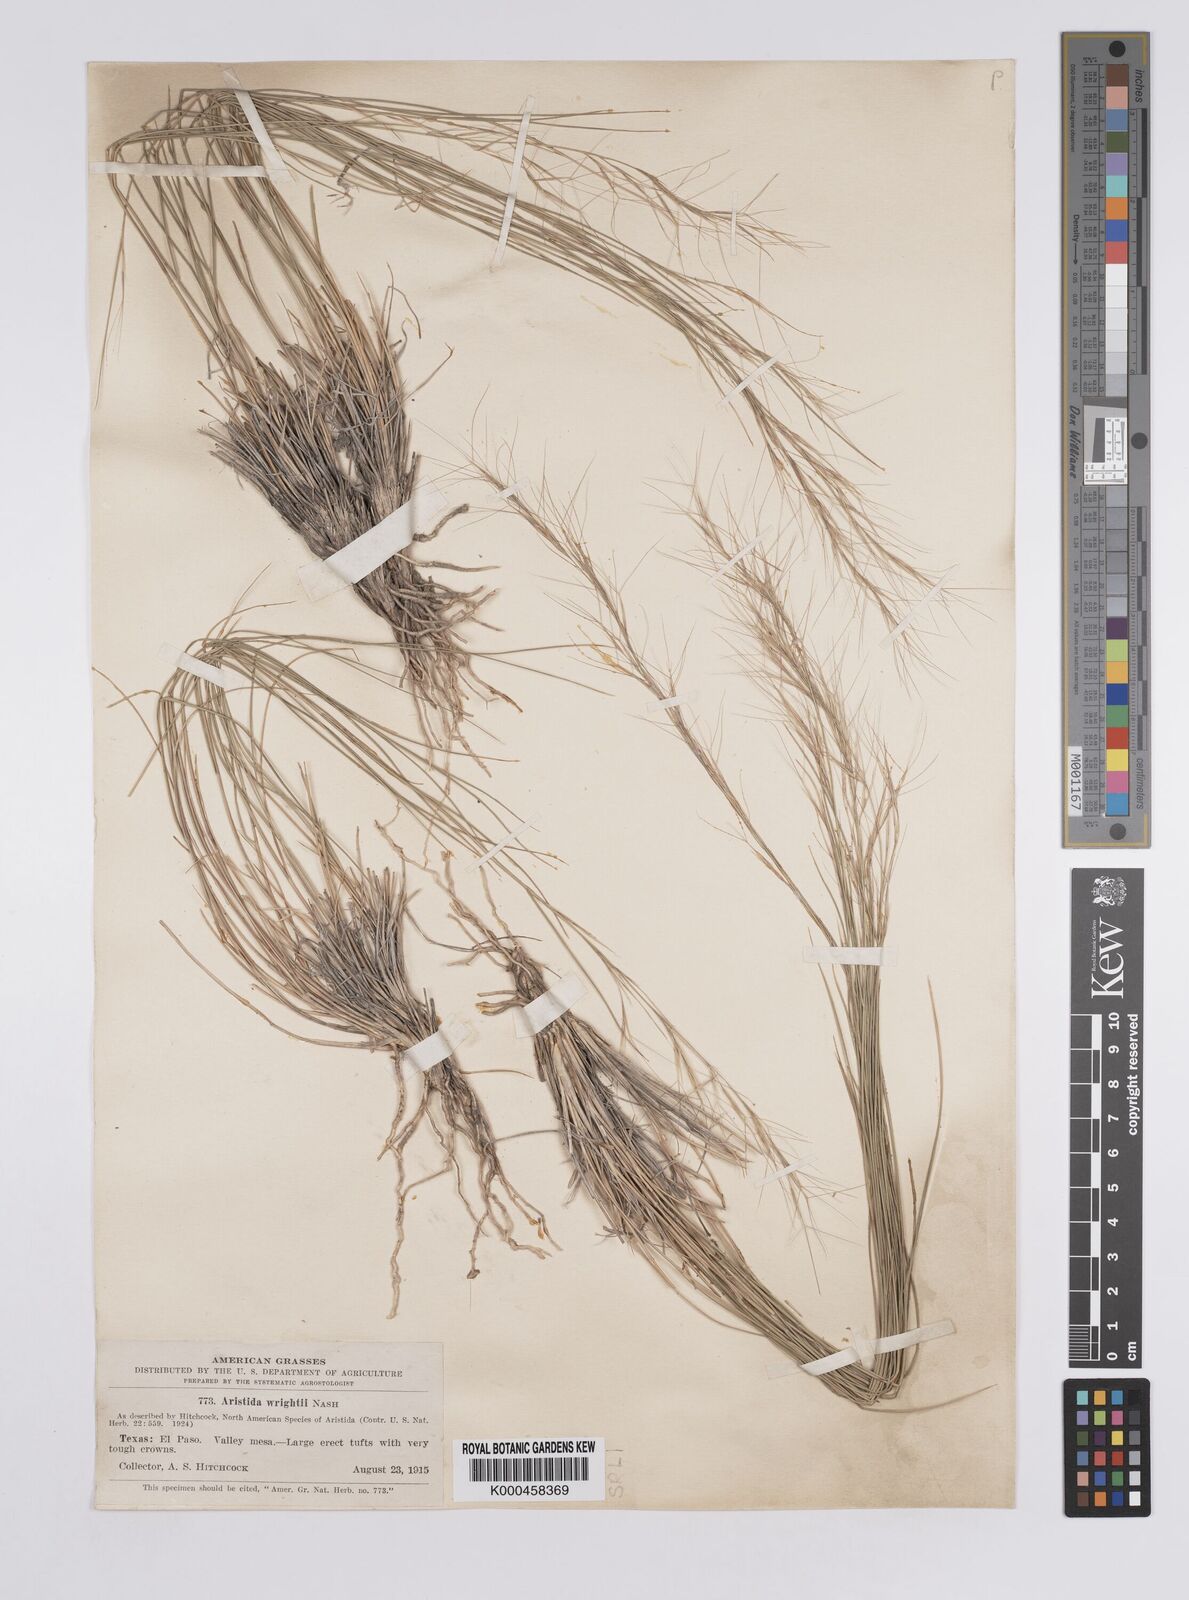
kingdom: Plantae
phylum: Tracheophyta
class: Liliopsida
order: Poales
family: Poaceae
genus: Aristida
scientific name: Aristida wrightii
